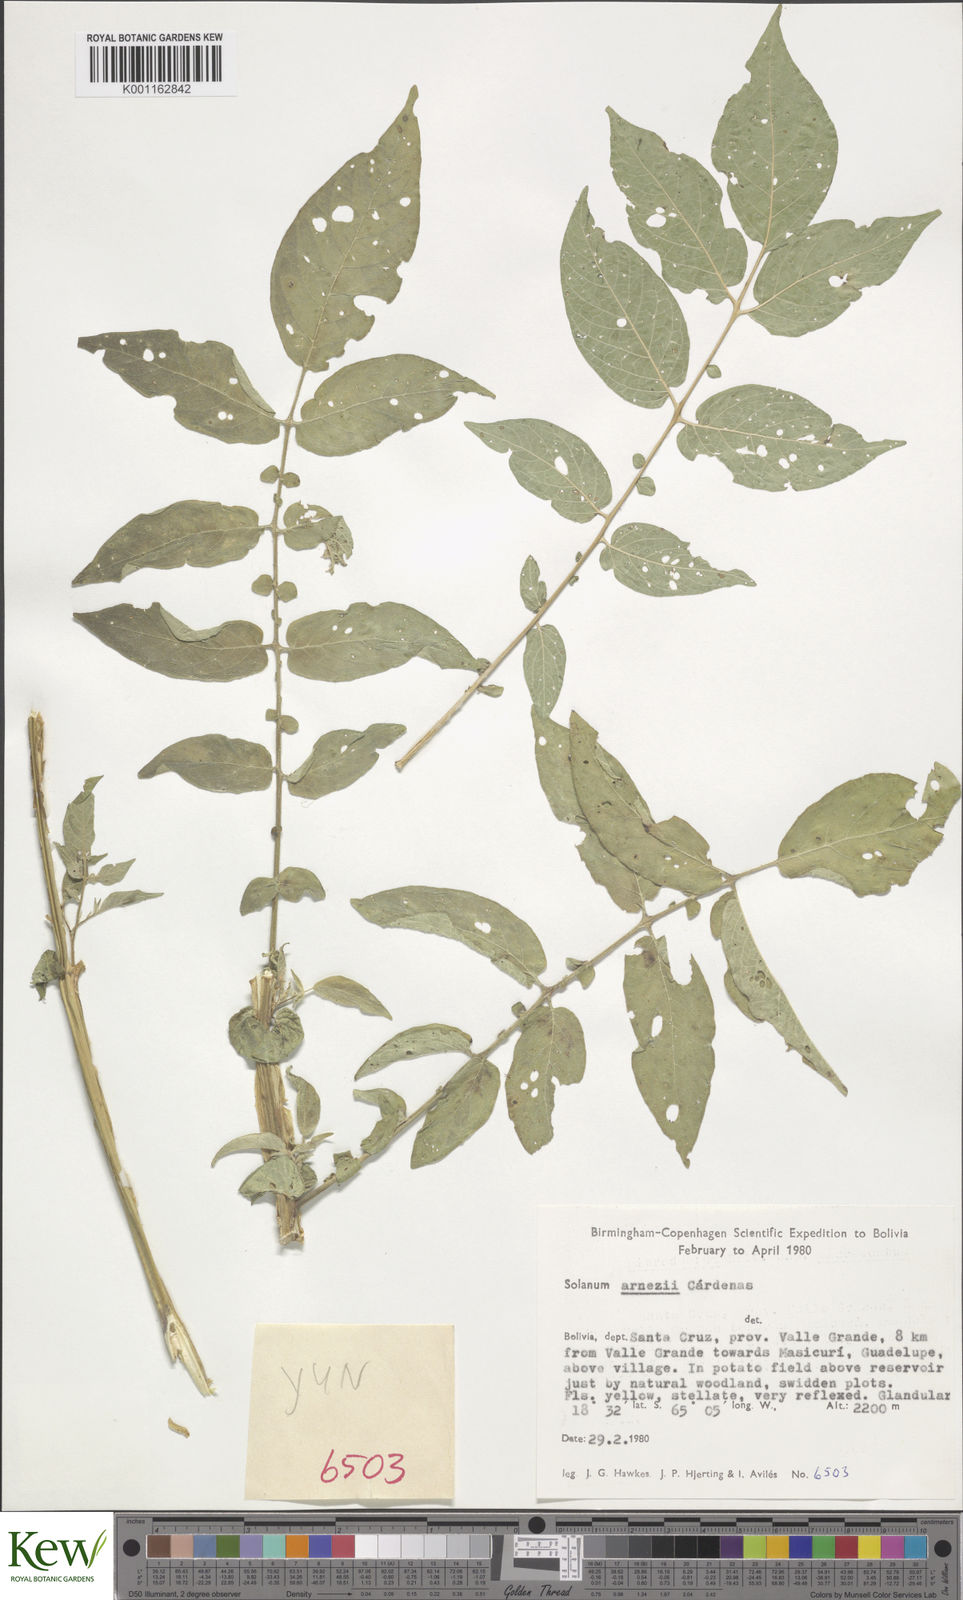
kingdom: Plantae
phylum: Tracheophyta
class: Magnoliopsida
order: Solanales
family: Solanaceae
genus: Solanum
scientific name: Solanum
